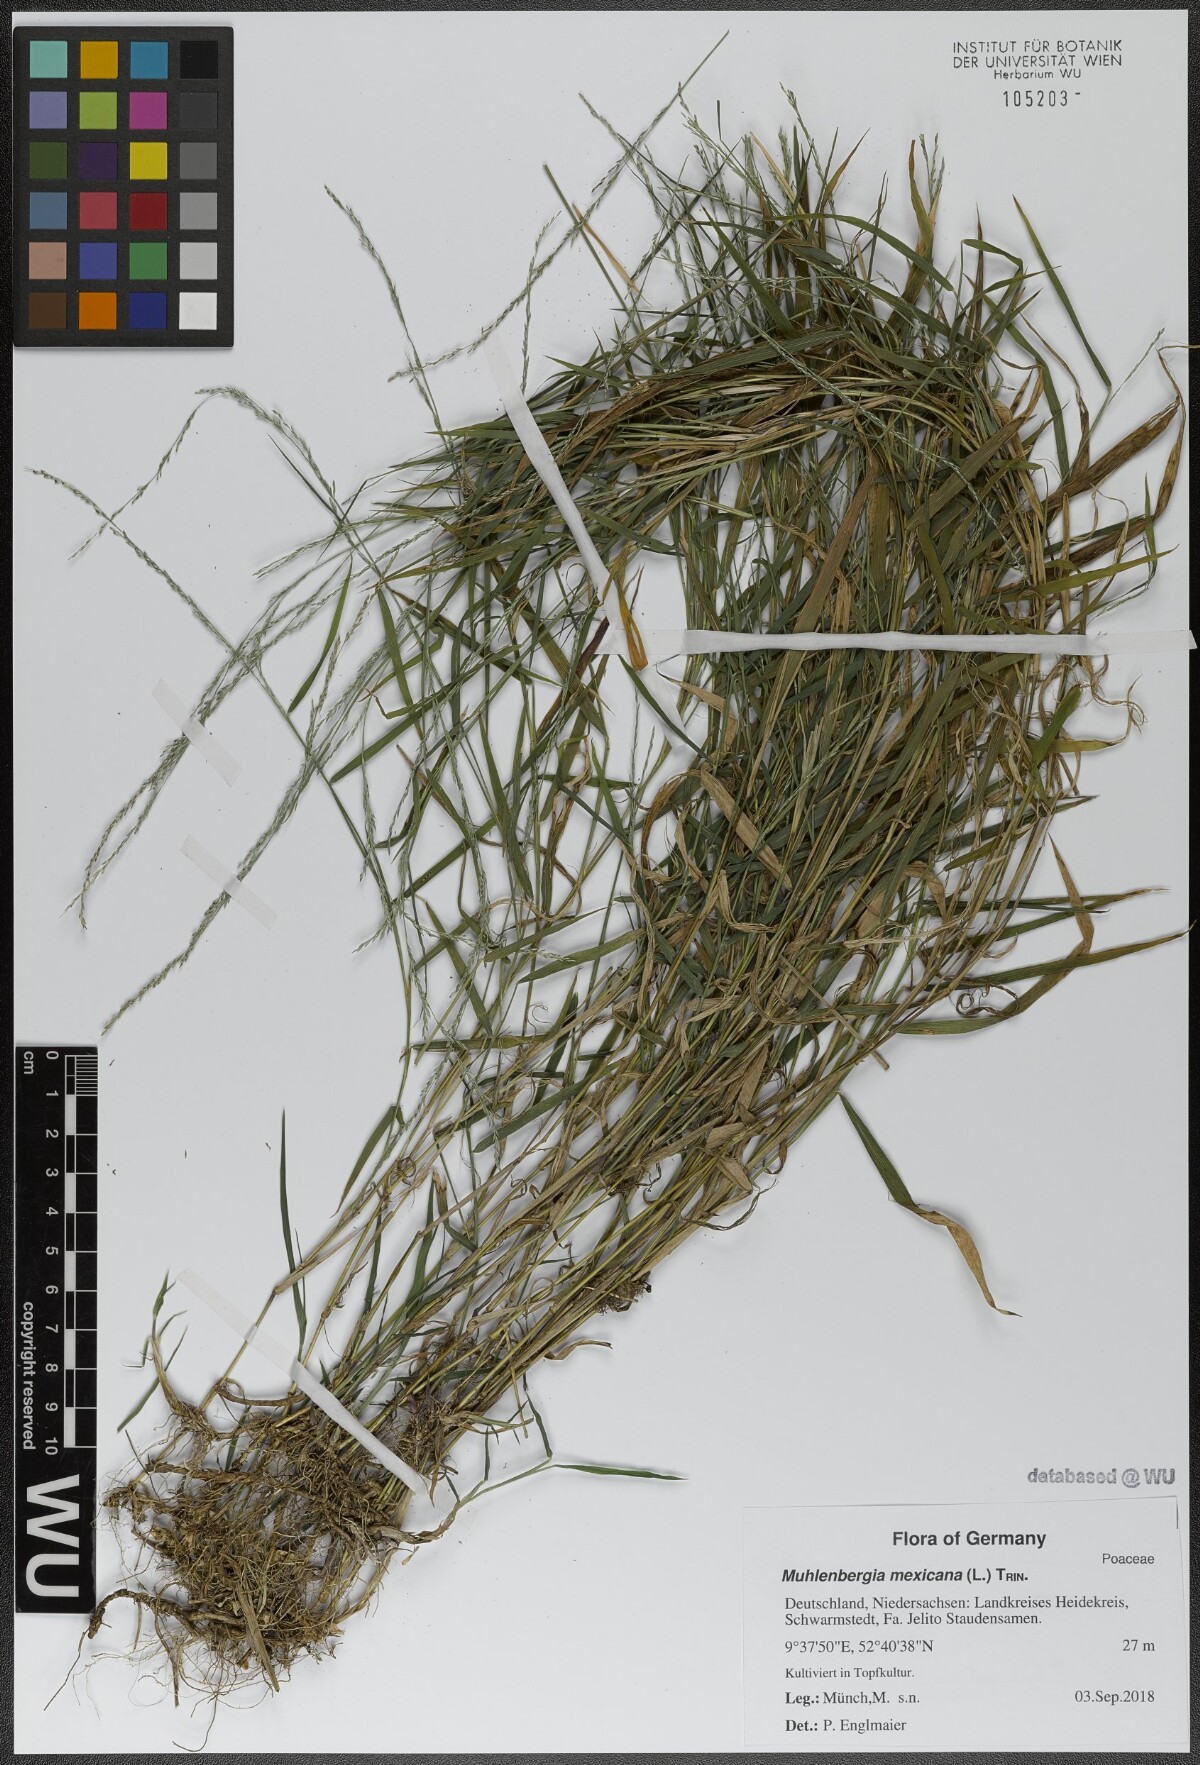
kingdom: Plantae
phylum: Tracheophyta
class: Liliopsida
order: Poales
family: Poaceae
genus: Muhlenbergia
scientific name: Muhlenbergia mexicana
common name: Mexican muhly
